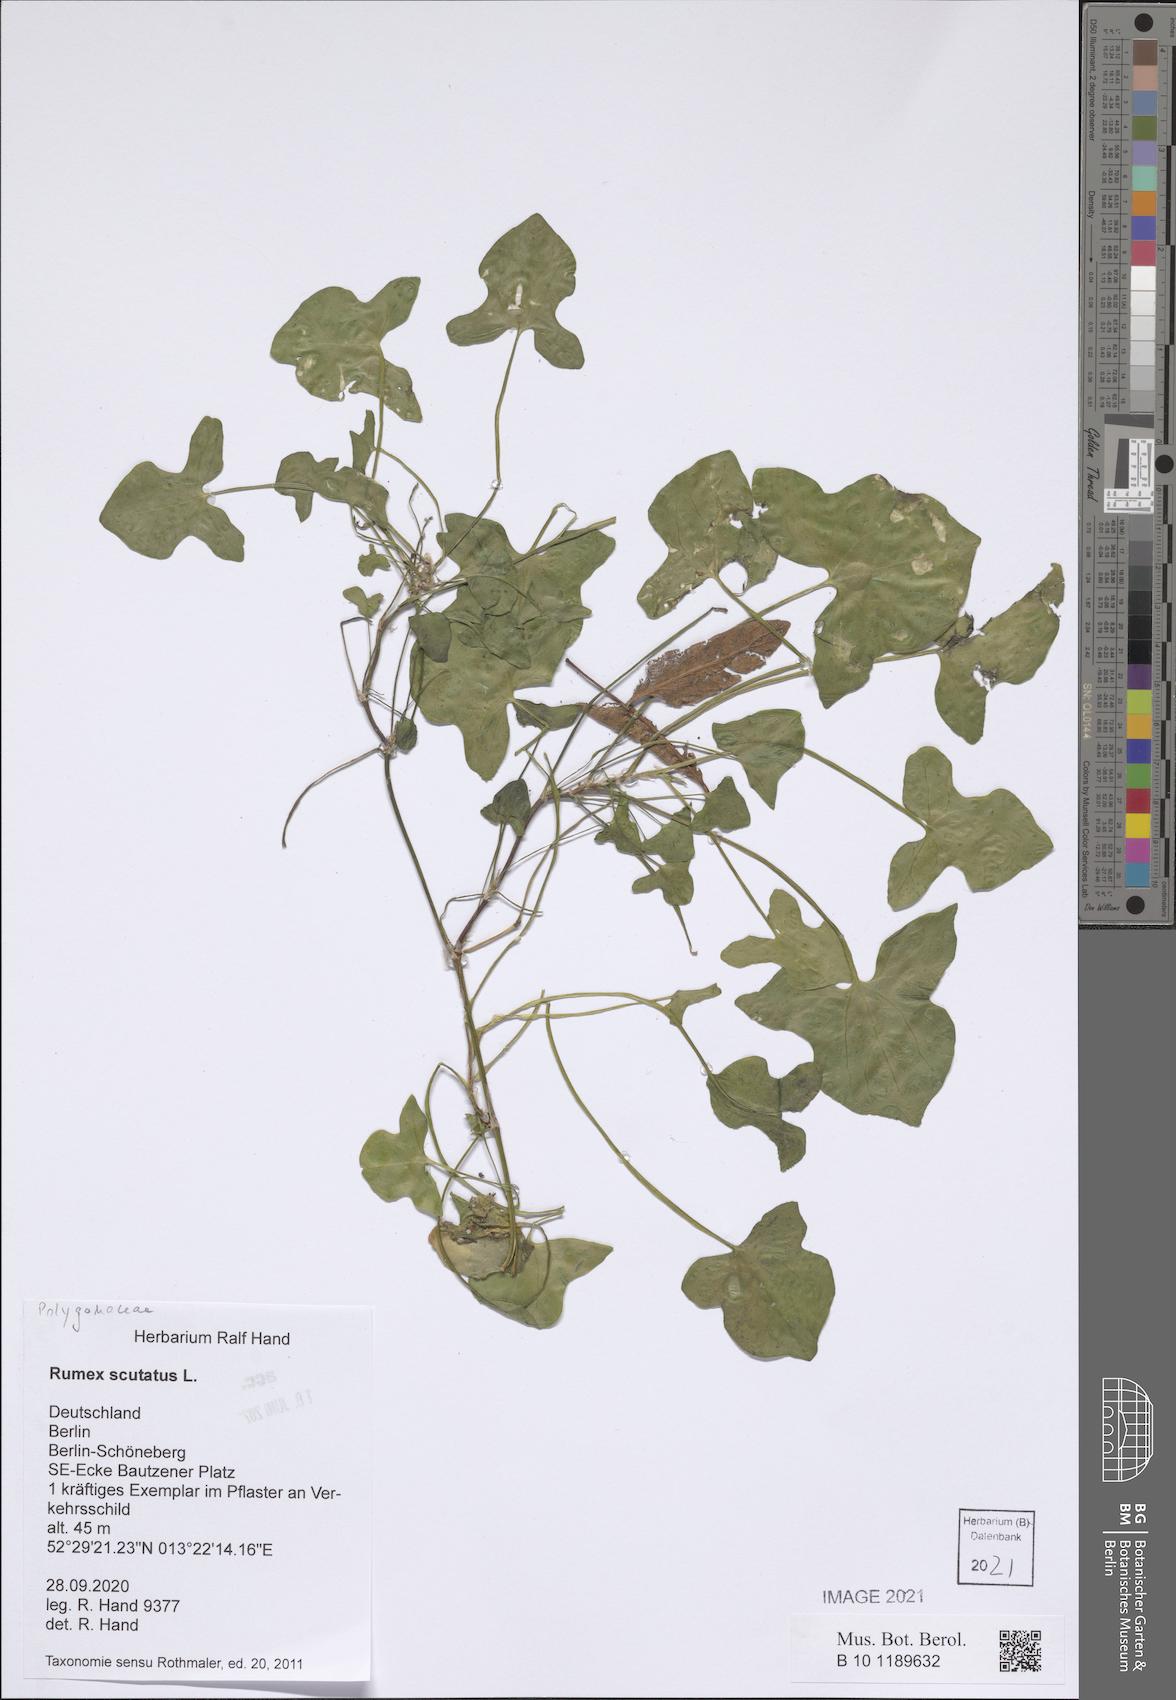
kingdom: Plantae
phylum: Tracheophyta
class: Magnoliopsida
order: Caryophyllales
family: Polygonaceae
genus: Rumex
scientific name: Rumex scutatus
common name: French sorrel
